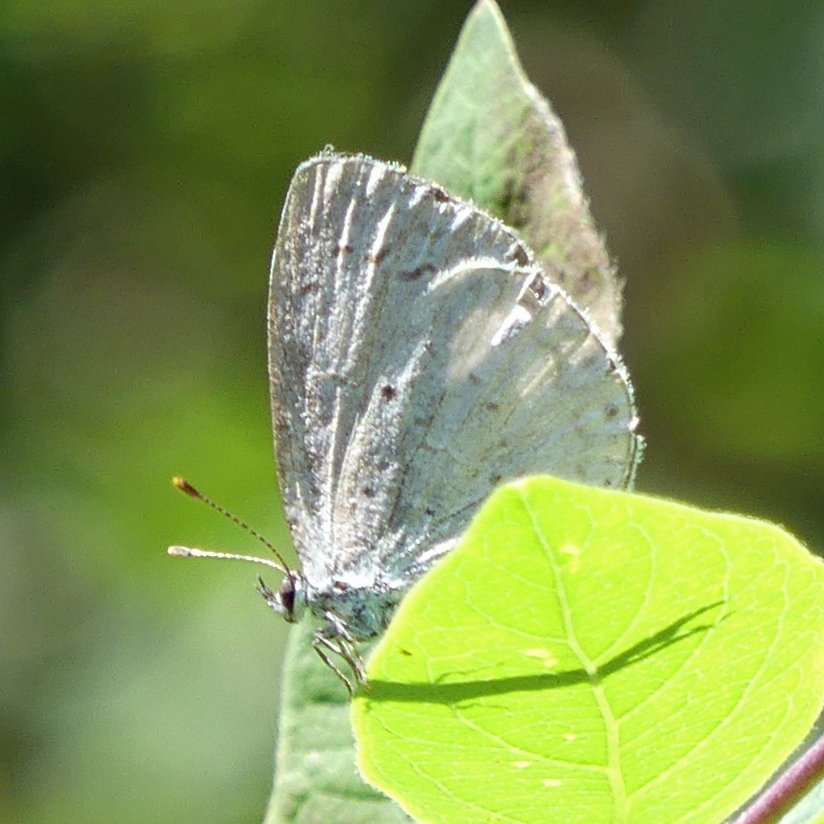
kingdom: Animalia
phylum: Arthropoda
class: Insecta
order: Lepidoptera
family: Lycaenidae
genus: Cyaniris
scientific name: Cyaniris neglecta
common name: Summer Azure
